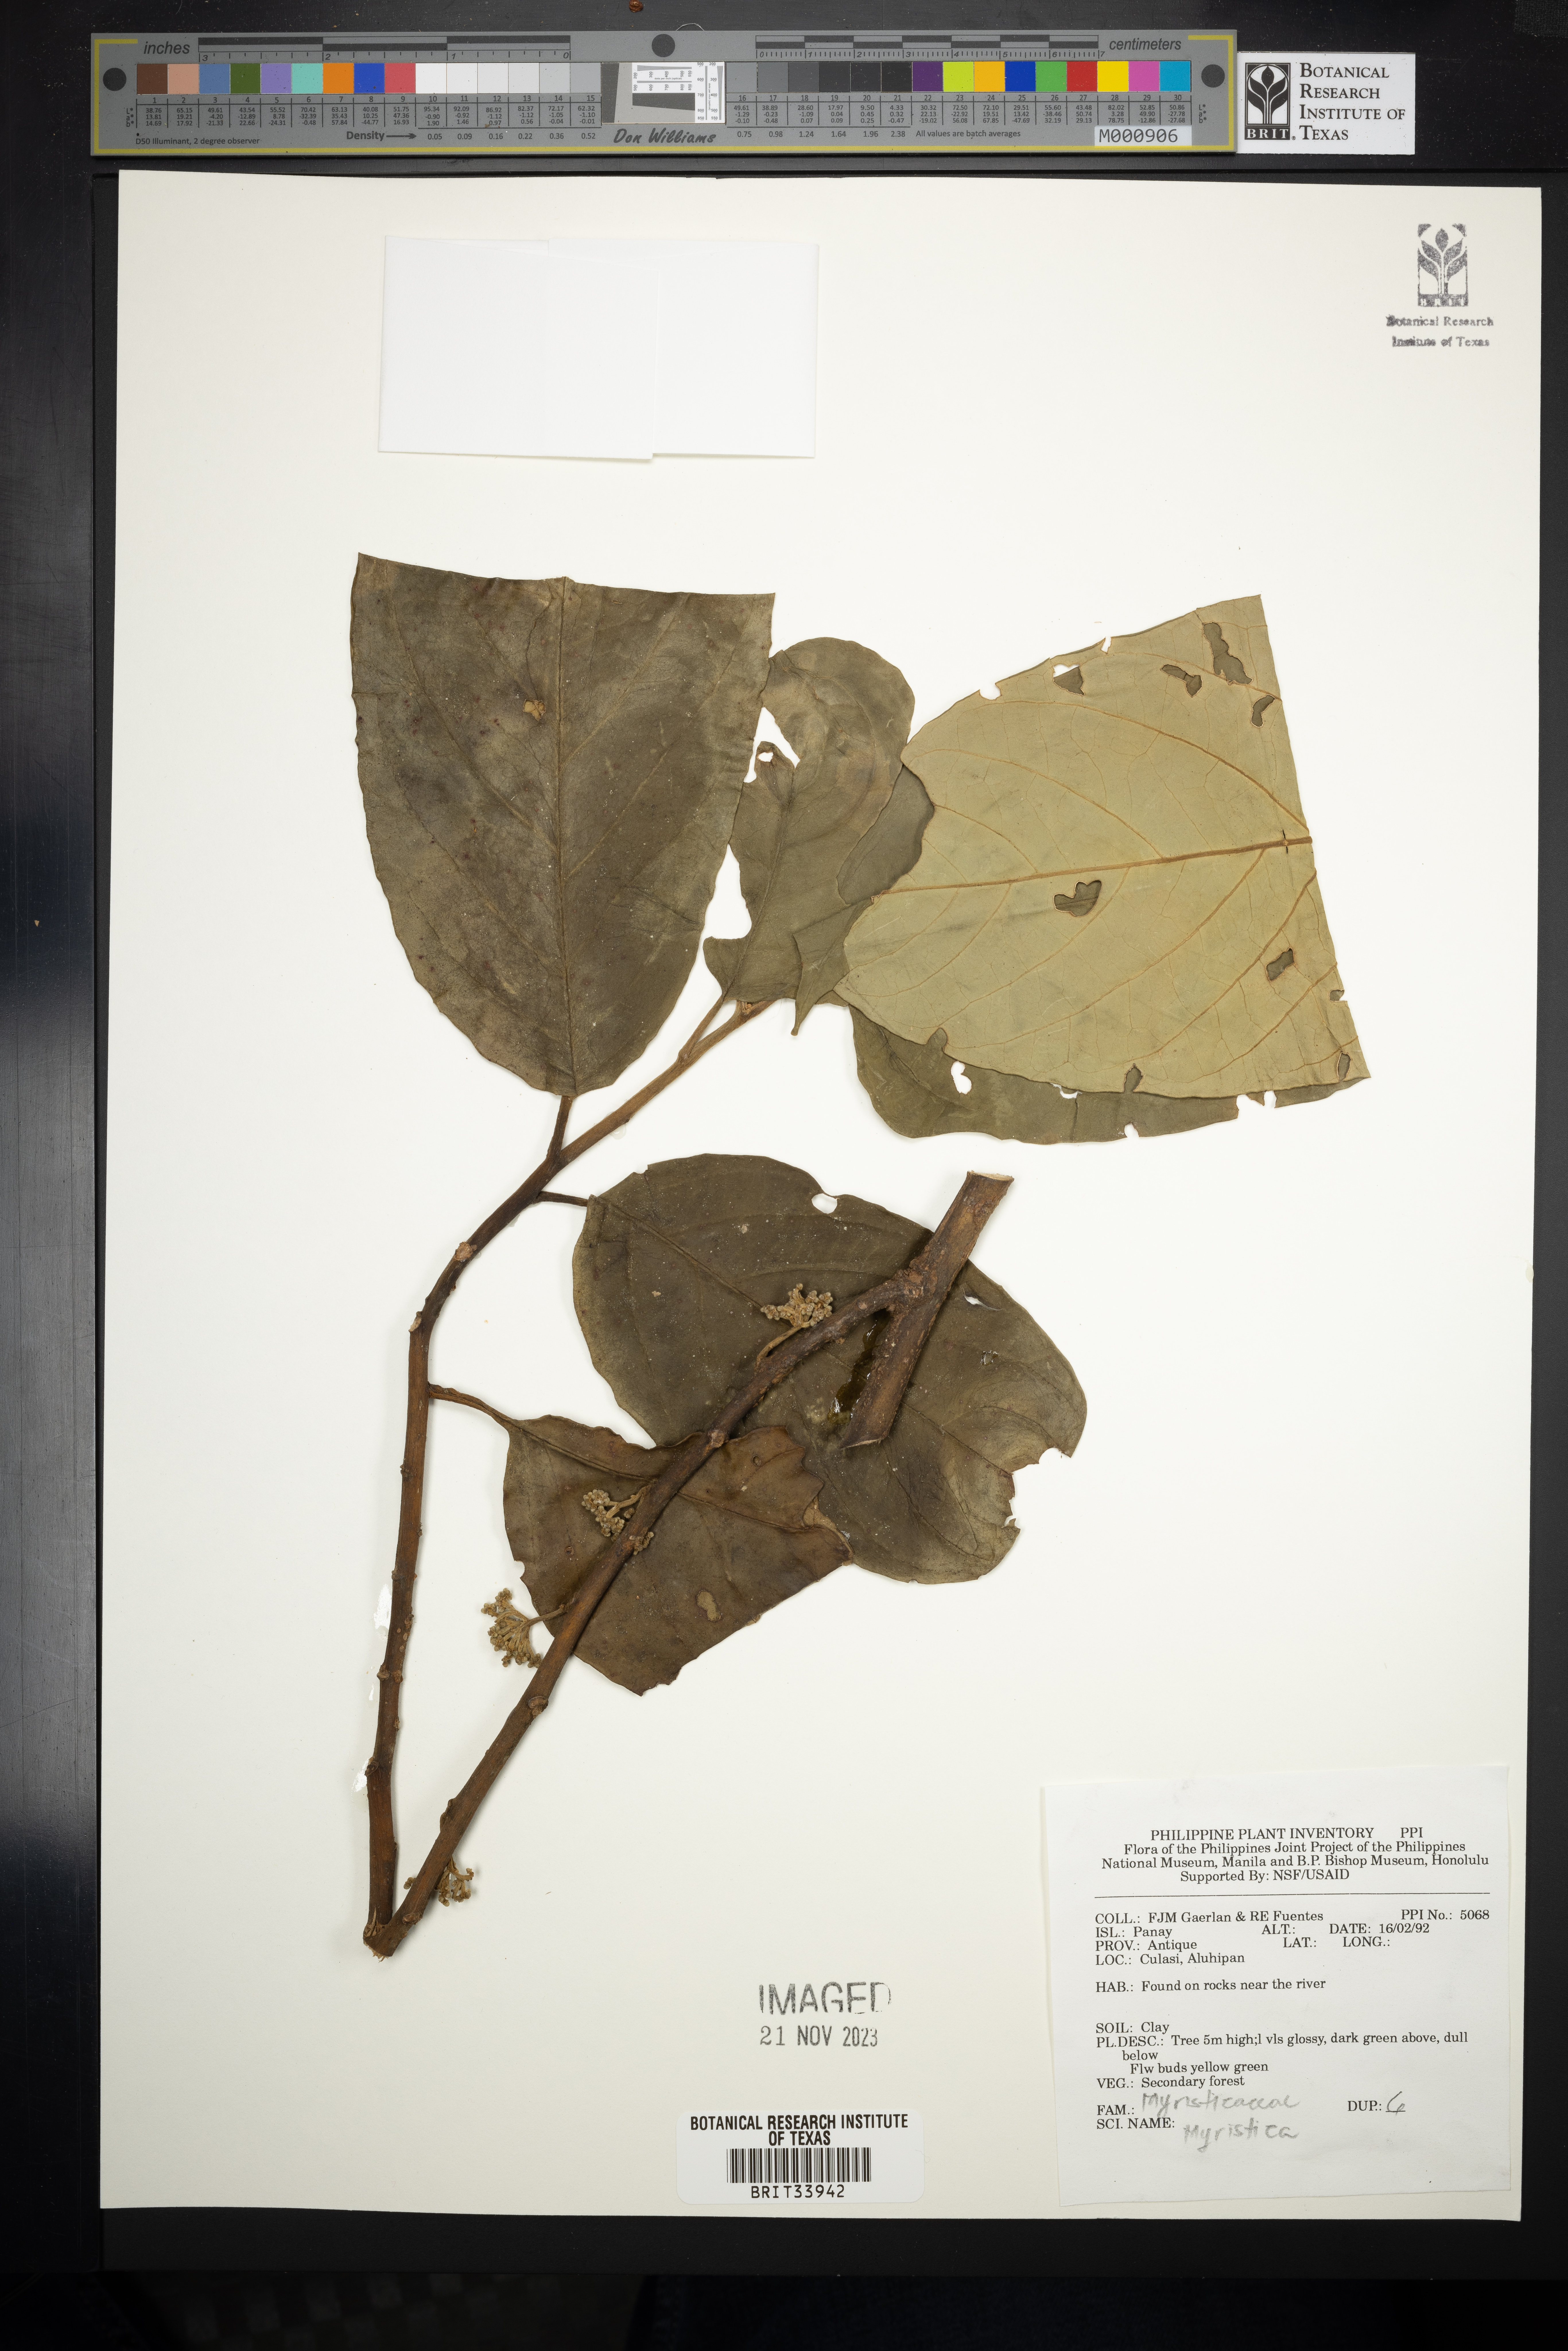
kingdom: Plantae
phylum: Tracheophyta
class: Magnoliopsida
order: Magnoliales
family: Myristicaceae
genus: Myristica
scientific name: Myristica
